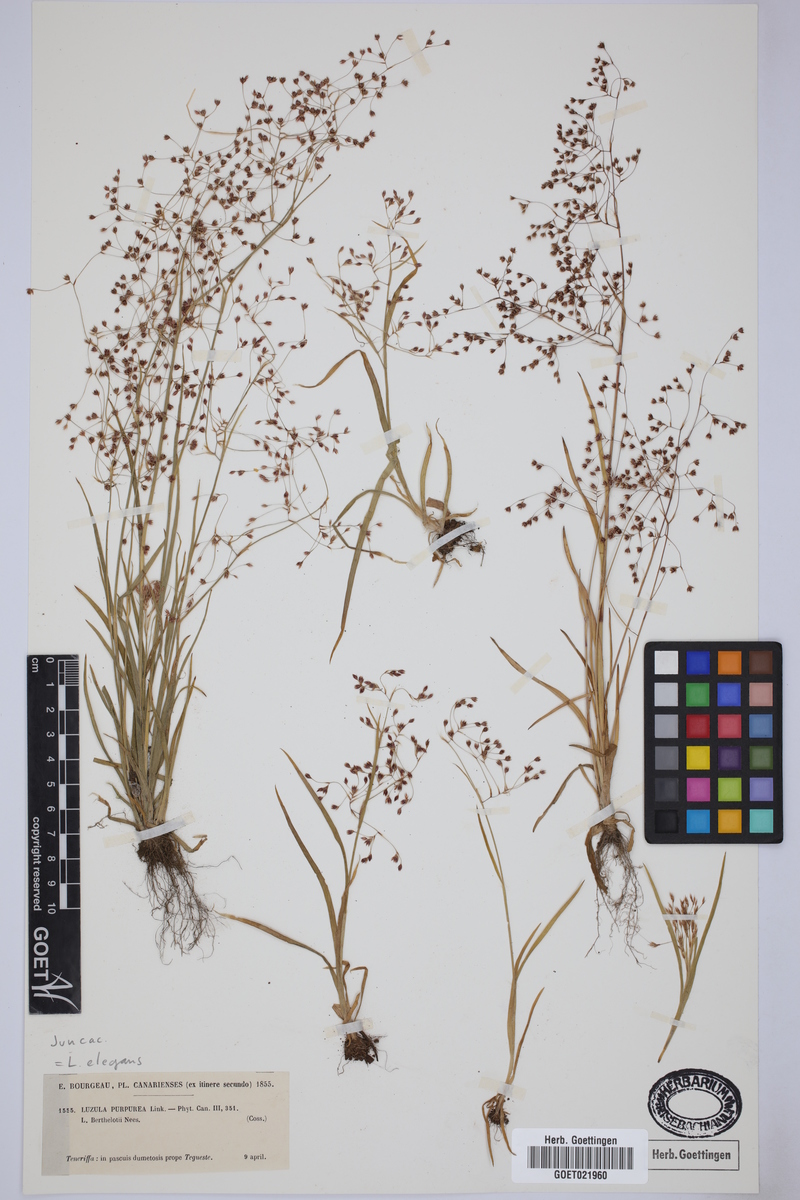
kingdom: Plantae
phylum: Tracheophyta
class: Liliopsida
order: Poales
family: Juncaceae
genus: Luzula
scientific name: Luzula elegans
